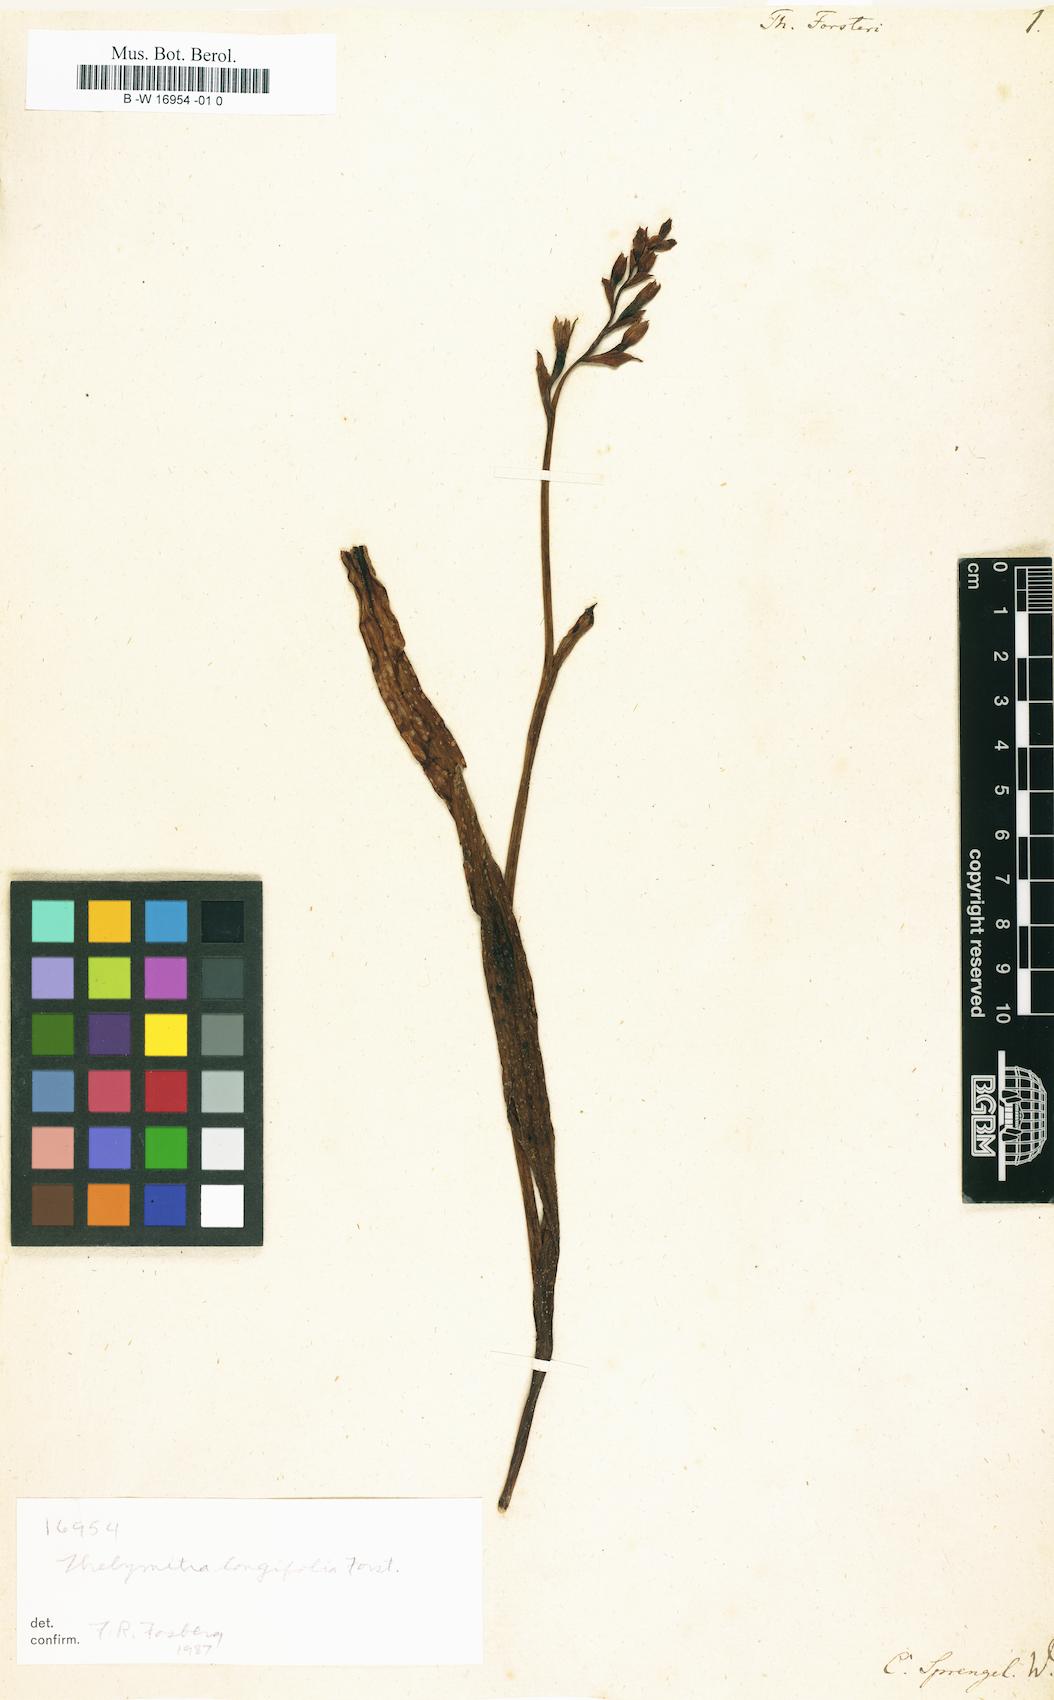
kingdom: Plantae
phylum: Tracheophyta
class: Liliopsida
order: Asparagales
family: Orchidaceae
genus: Thelymitra
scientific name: Thelymitra longifolia
